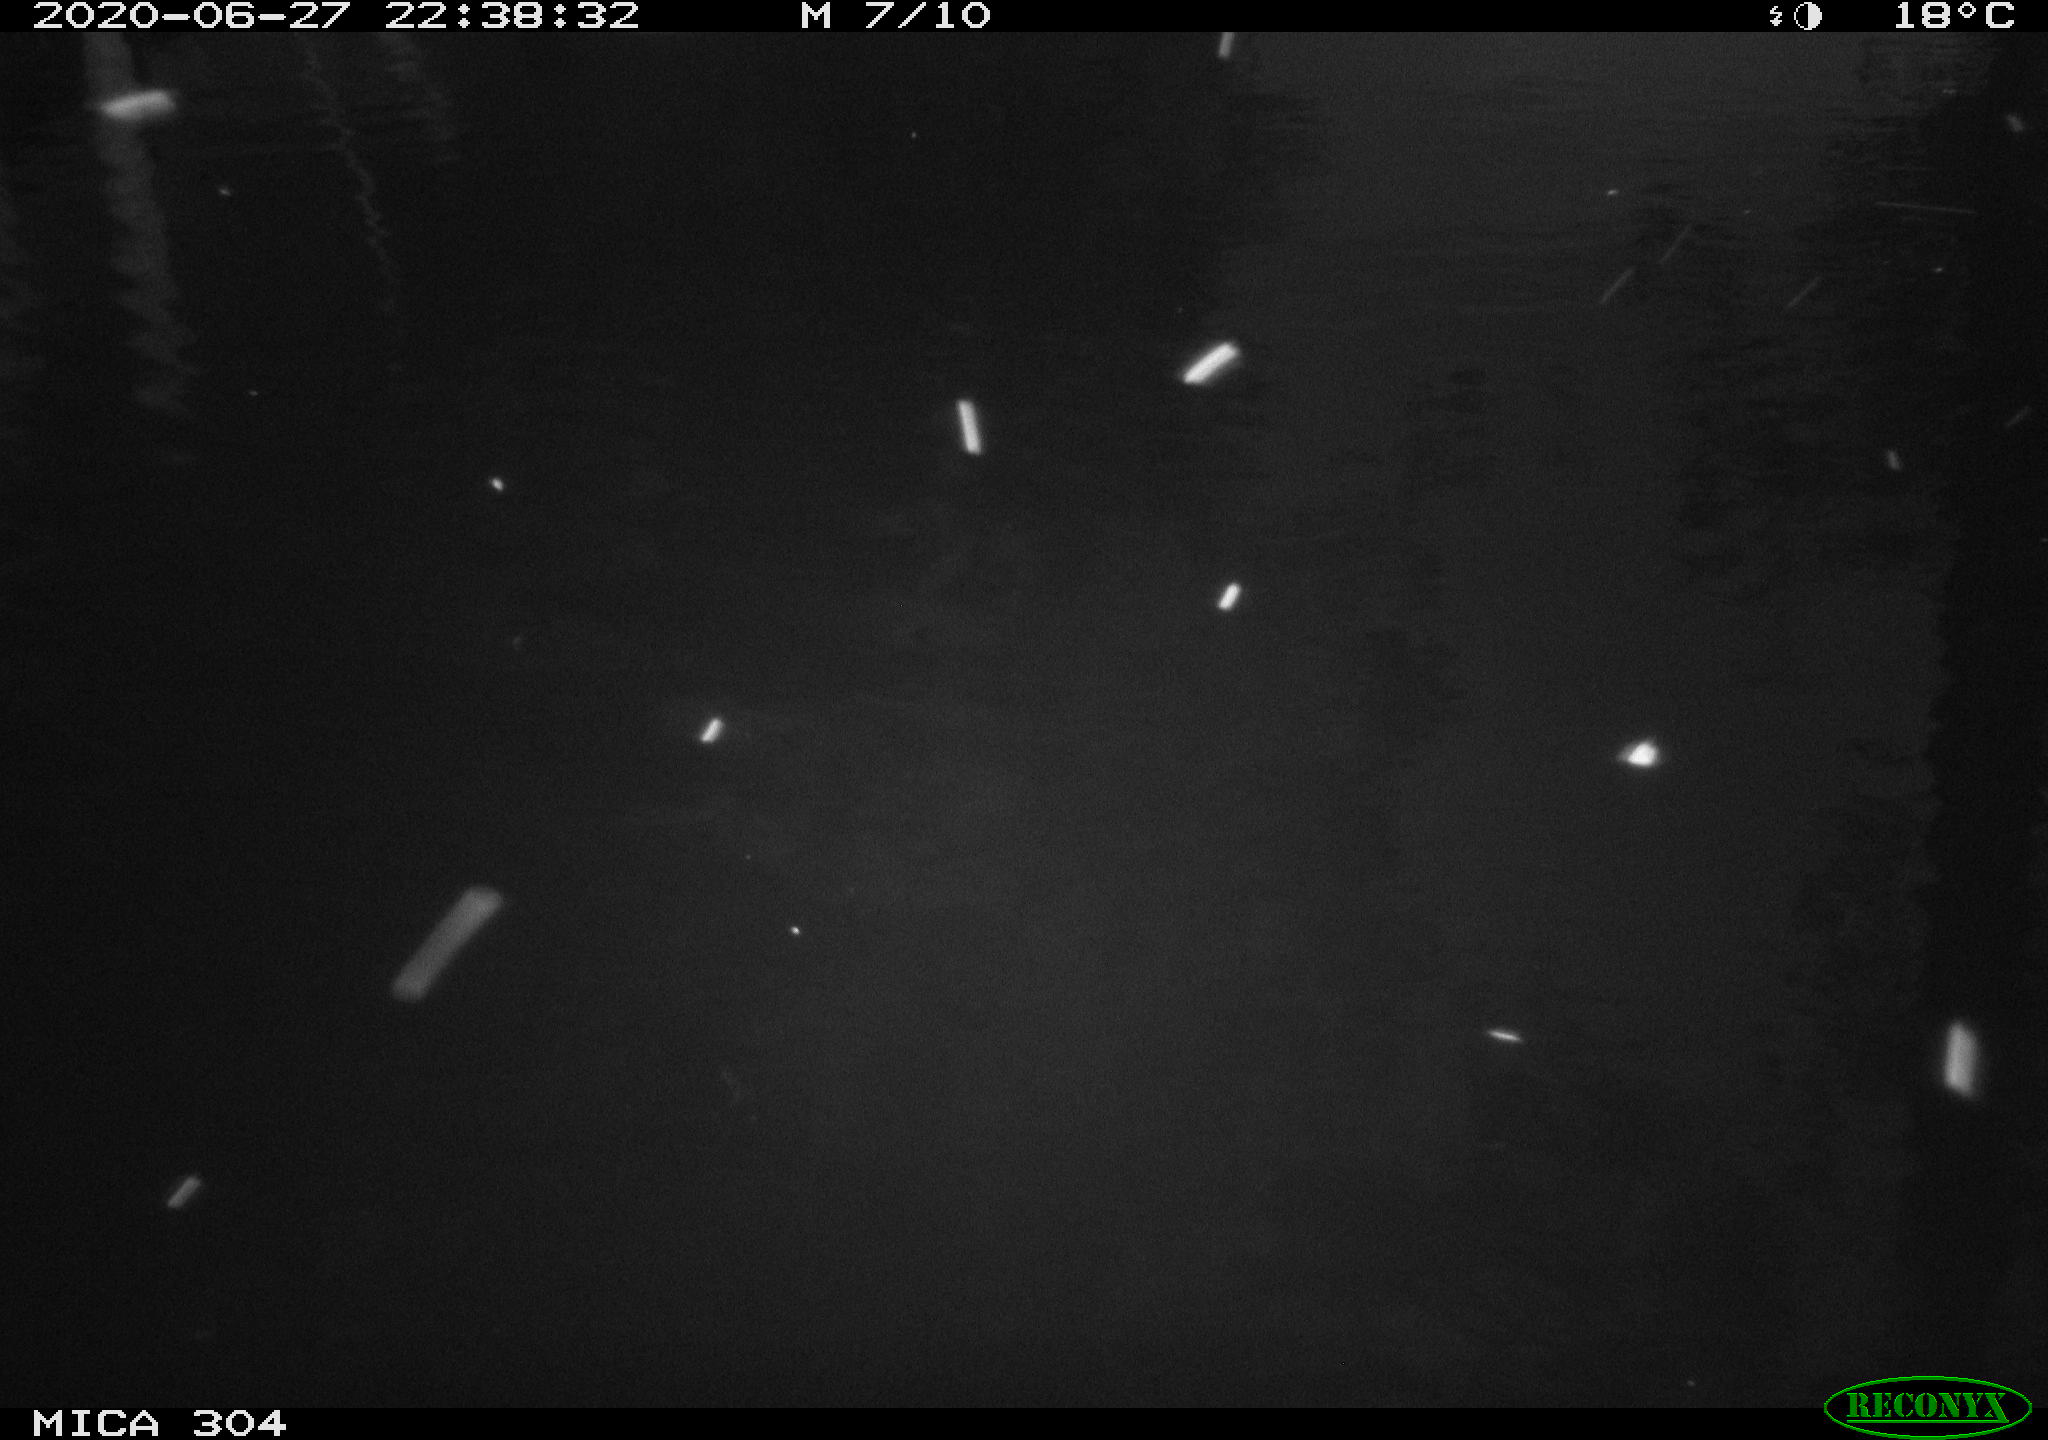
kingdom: Animalia
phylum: Chordata
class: Aves
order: Anseriformes
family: Anatidae
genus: Anas
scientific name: Anas platyrhynchos
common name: Mallard
